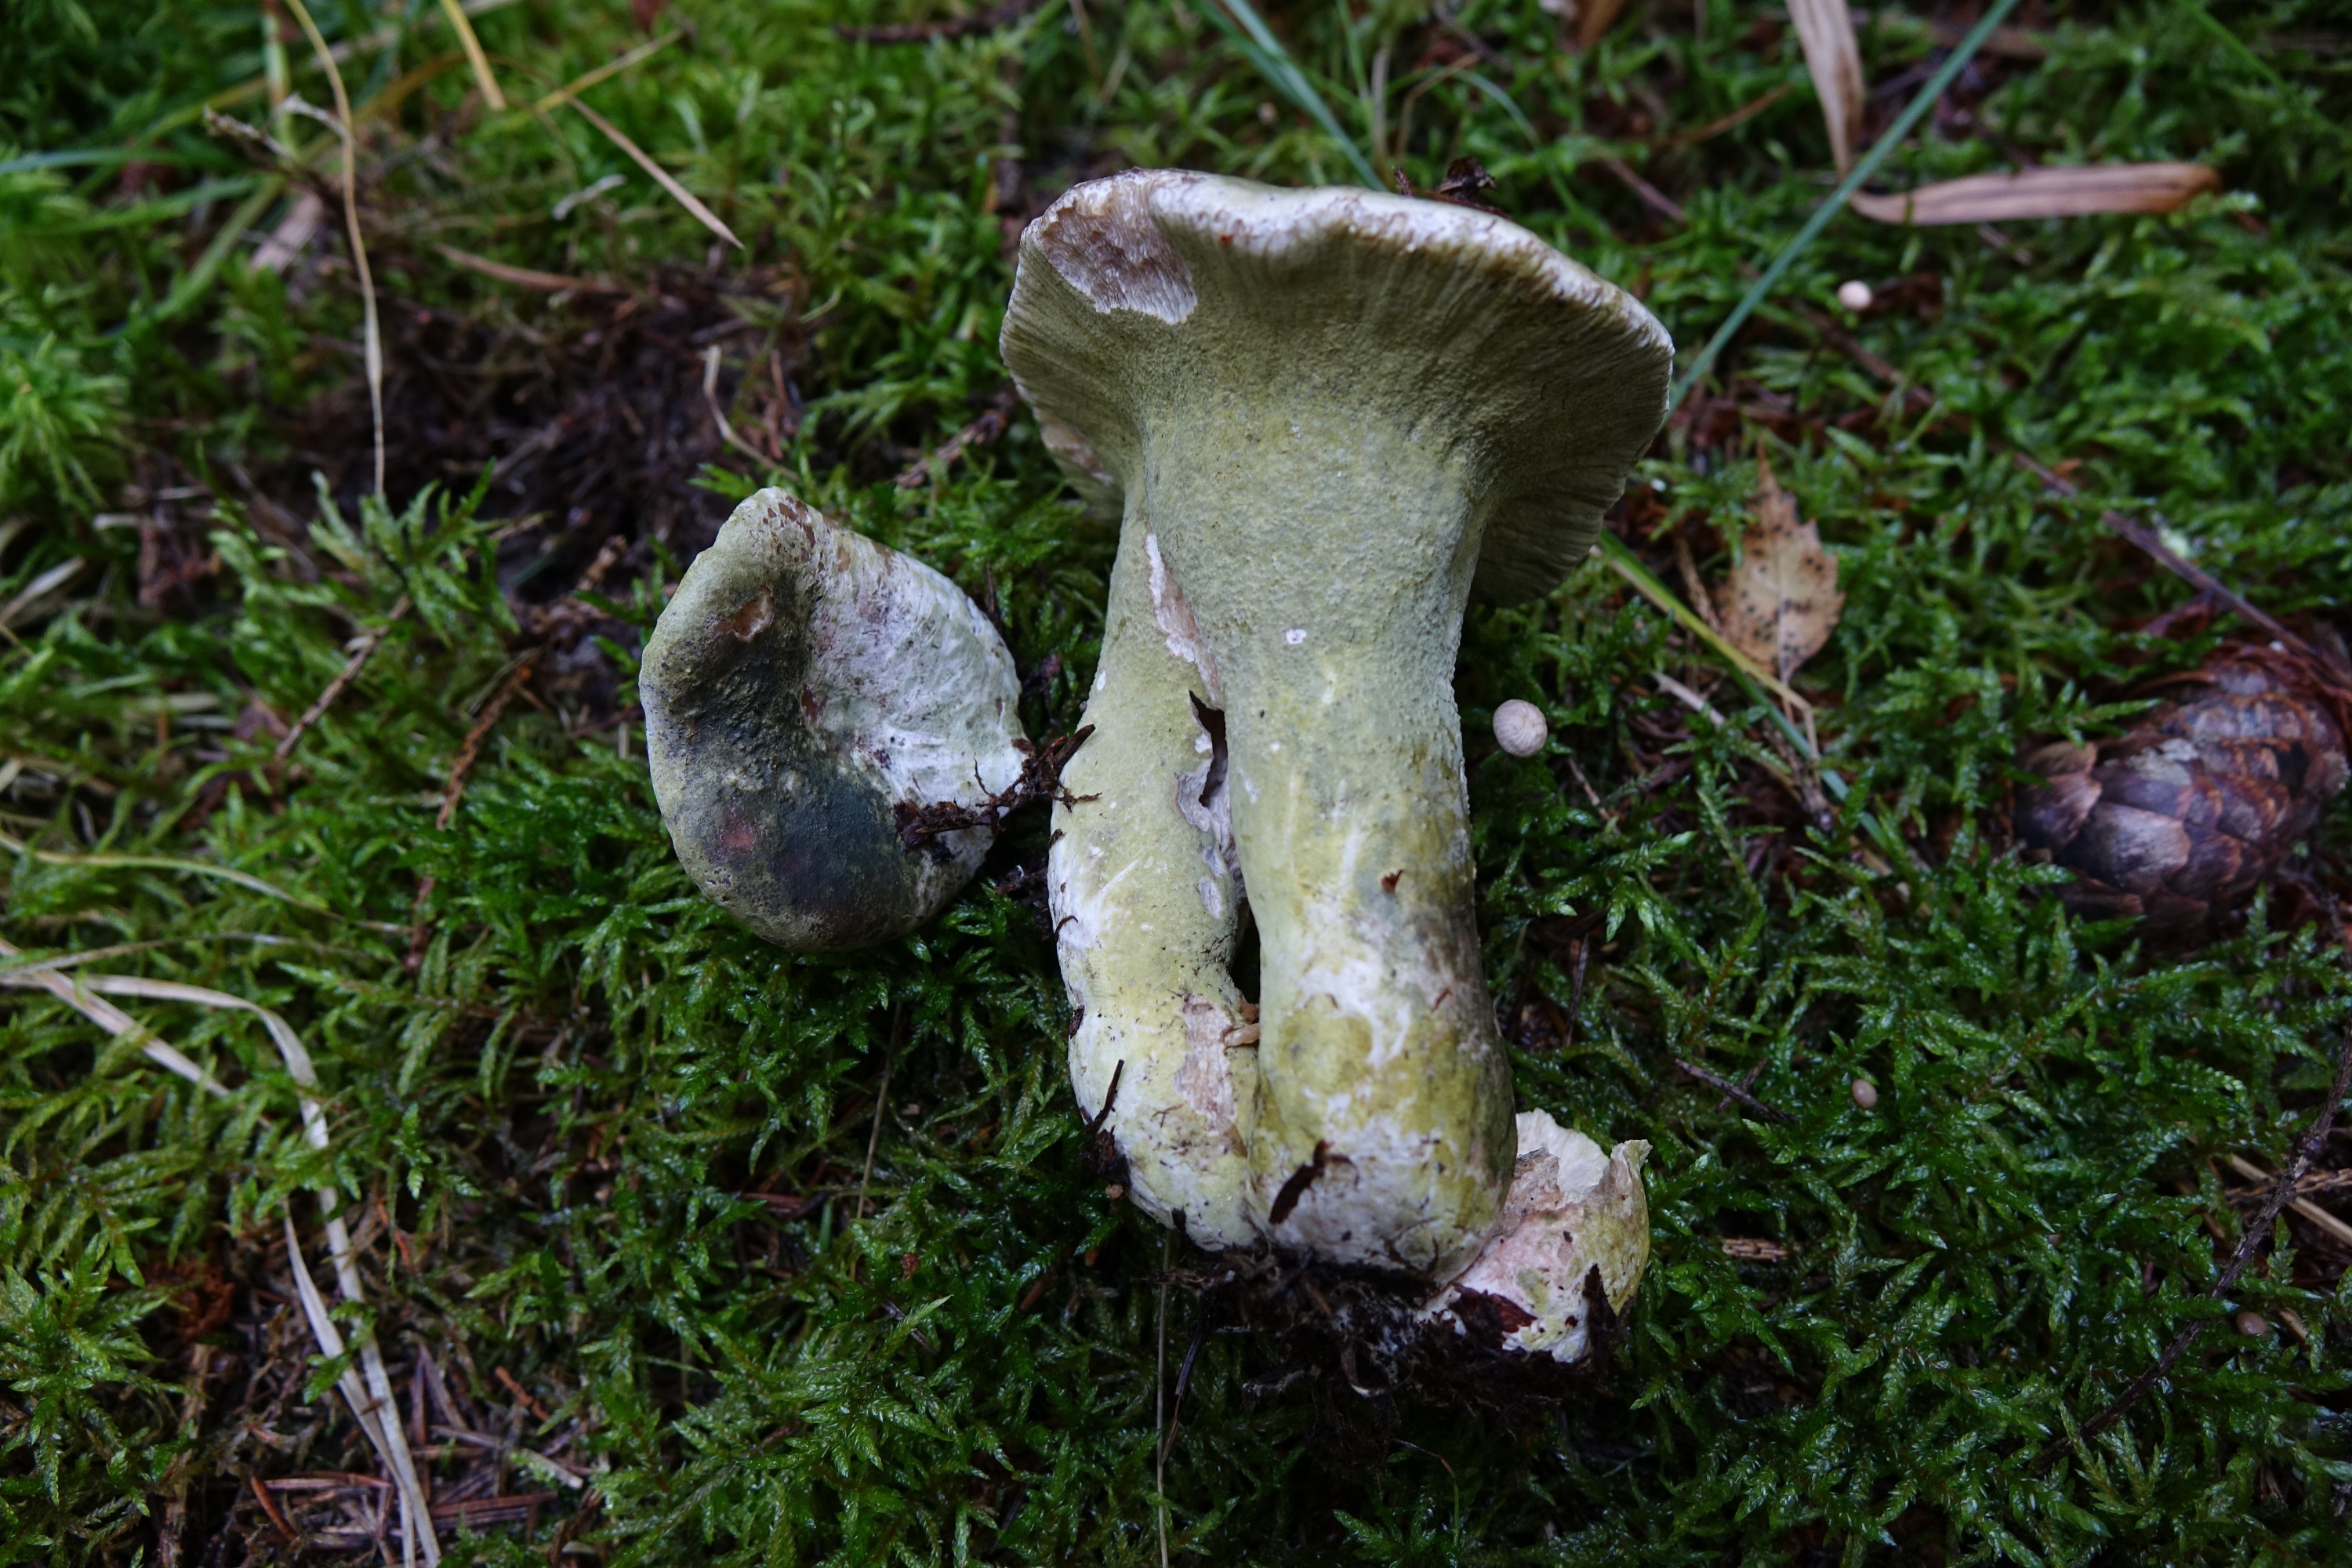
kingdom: Fungi
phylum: Ascomycota
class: Sordariomycetes
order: Hypocreales
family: Hypocreaceae
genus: Hypomyces
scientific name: Hypomyces luteovirens
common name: Yellow-green russula mold
